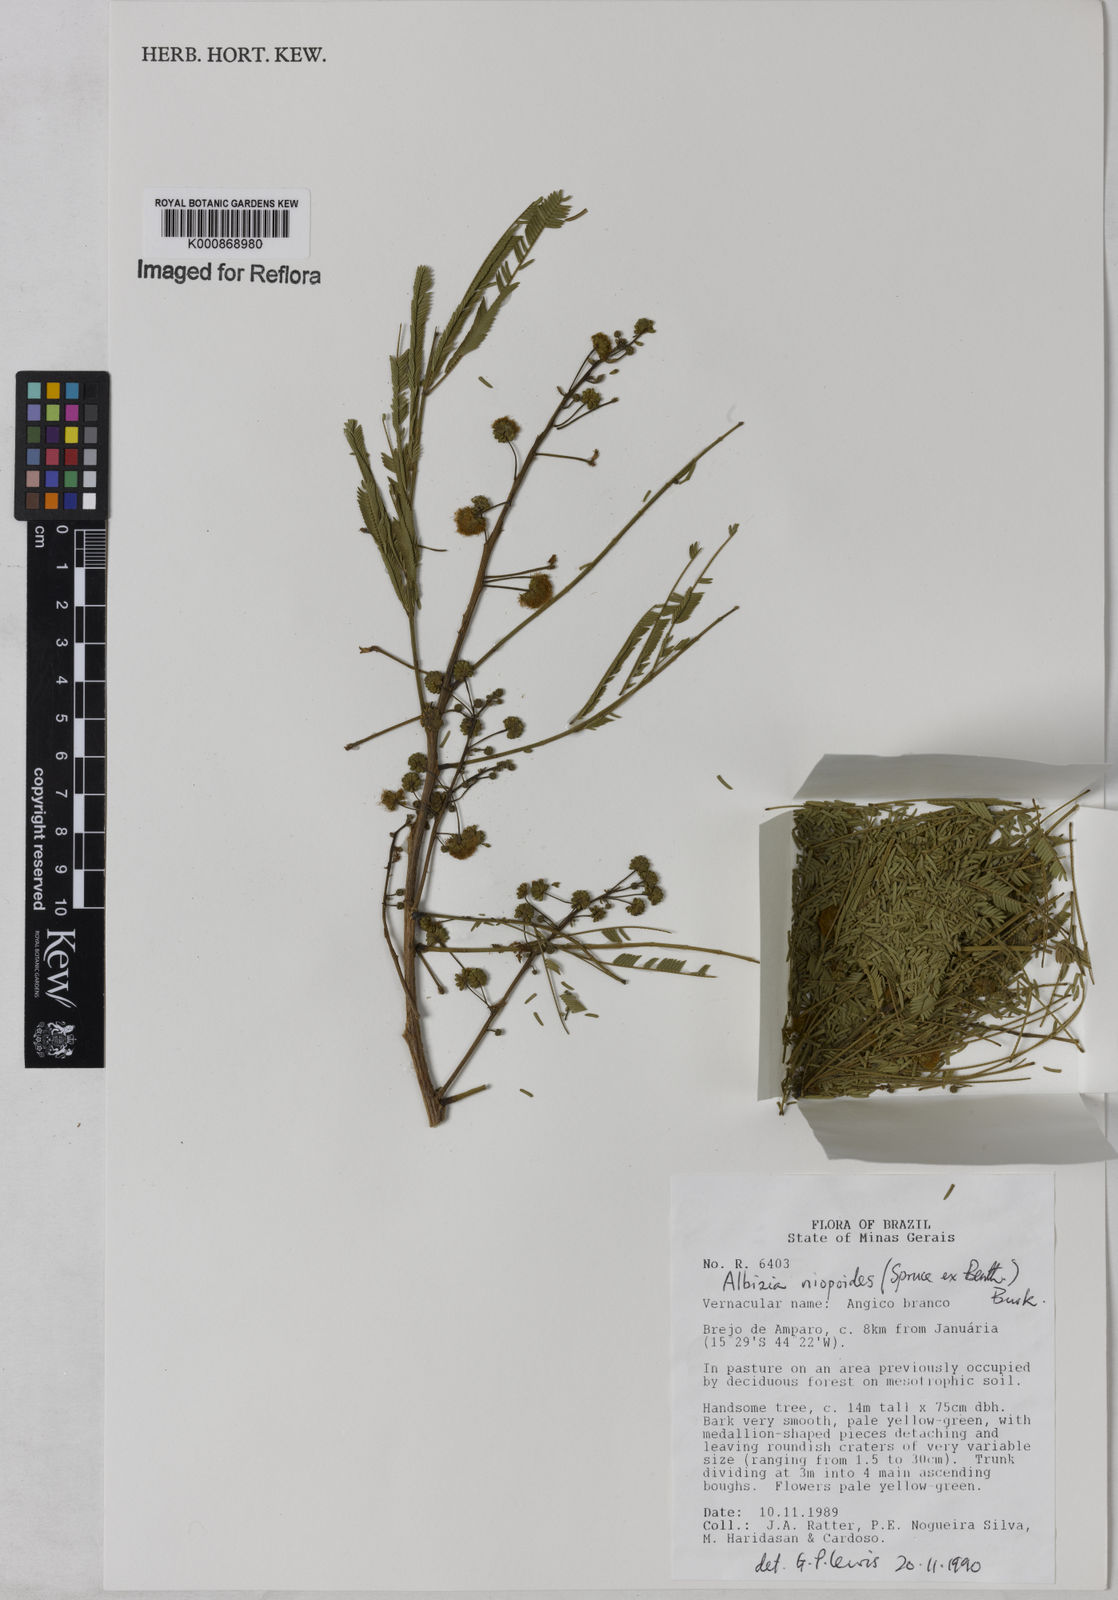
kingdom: Plantae
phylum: Tracheophyta
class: Magnoliopsida
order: Fabales
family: Fabaceae
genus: Albizia
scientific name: Albizia niopoides
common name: Silk tree
